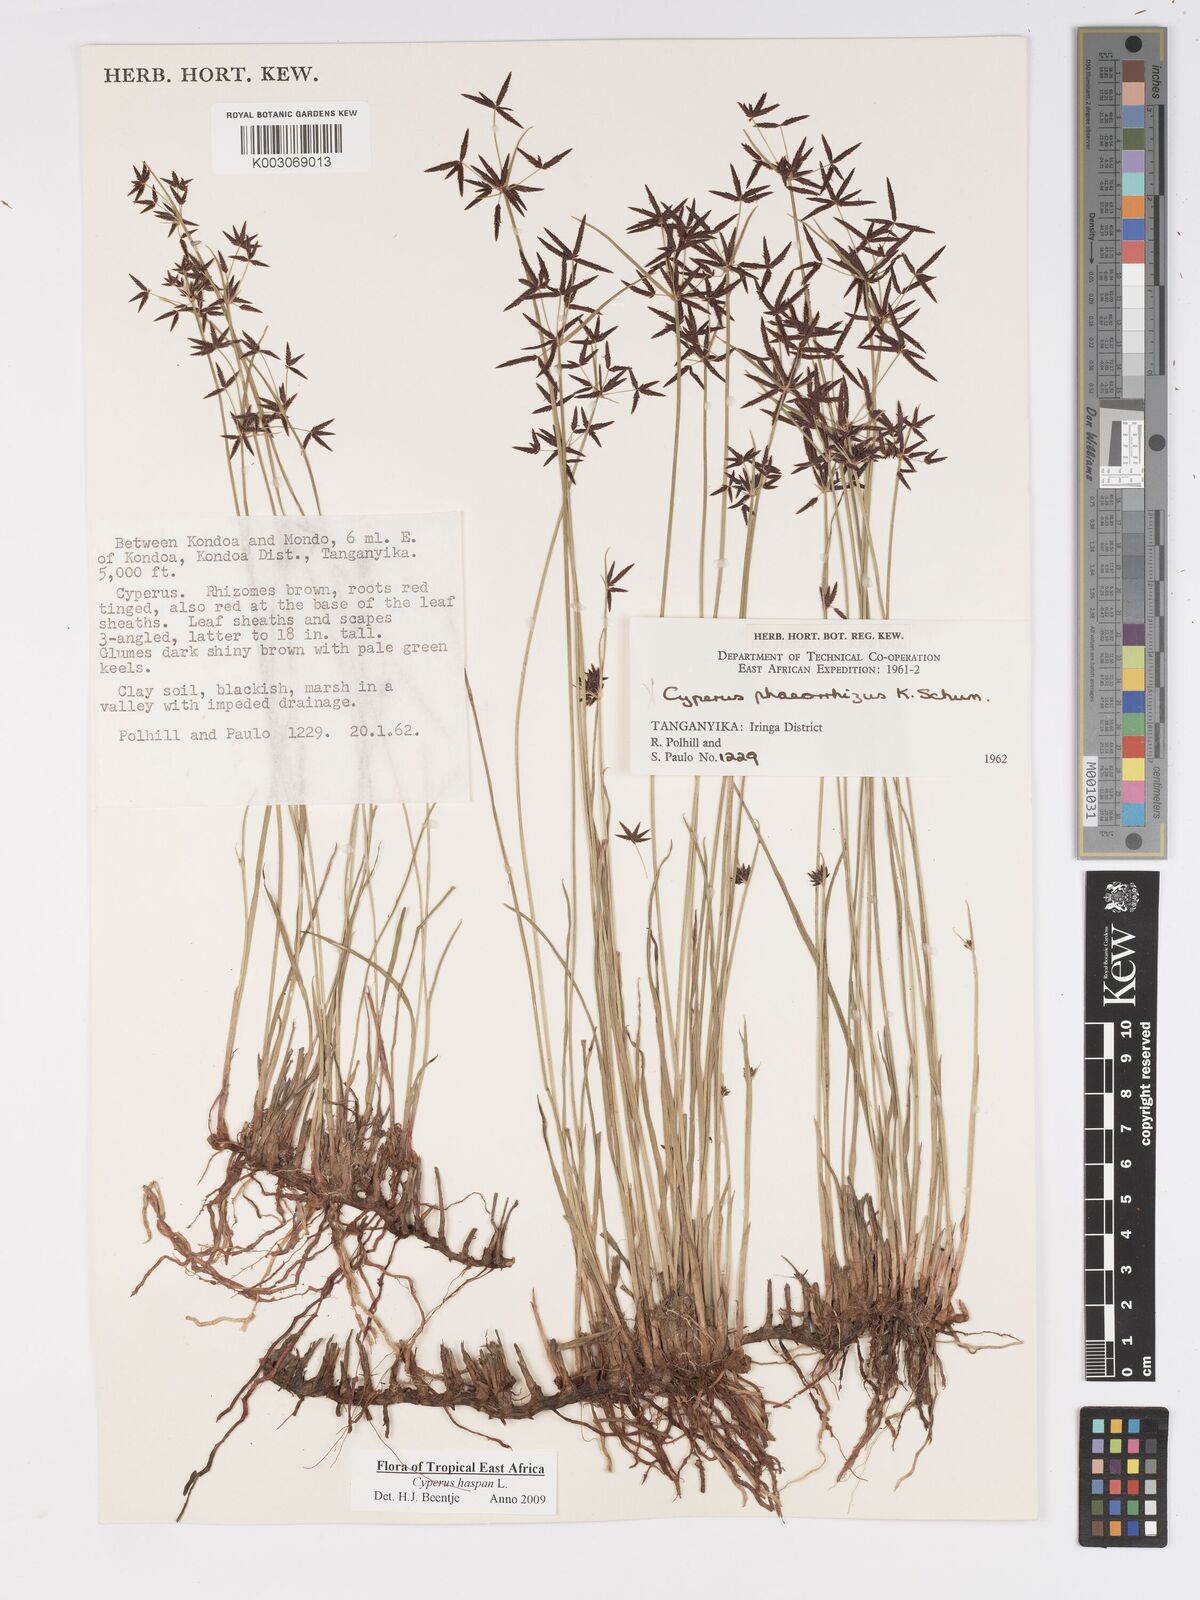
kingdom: Plantae
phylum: Tracheophyta
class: Liliopsida
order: Poales
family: Cyperaceae
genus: Cyperus
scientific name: Cyperus
